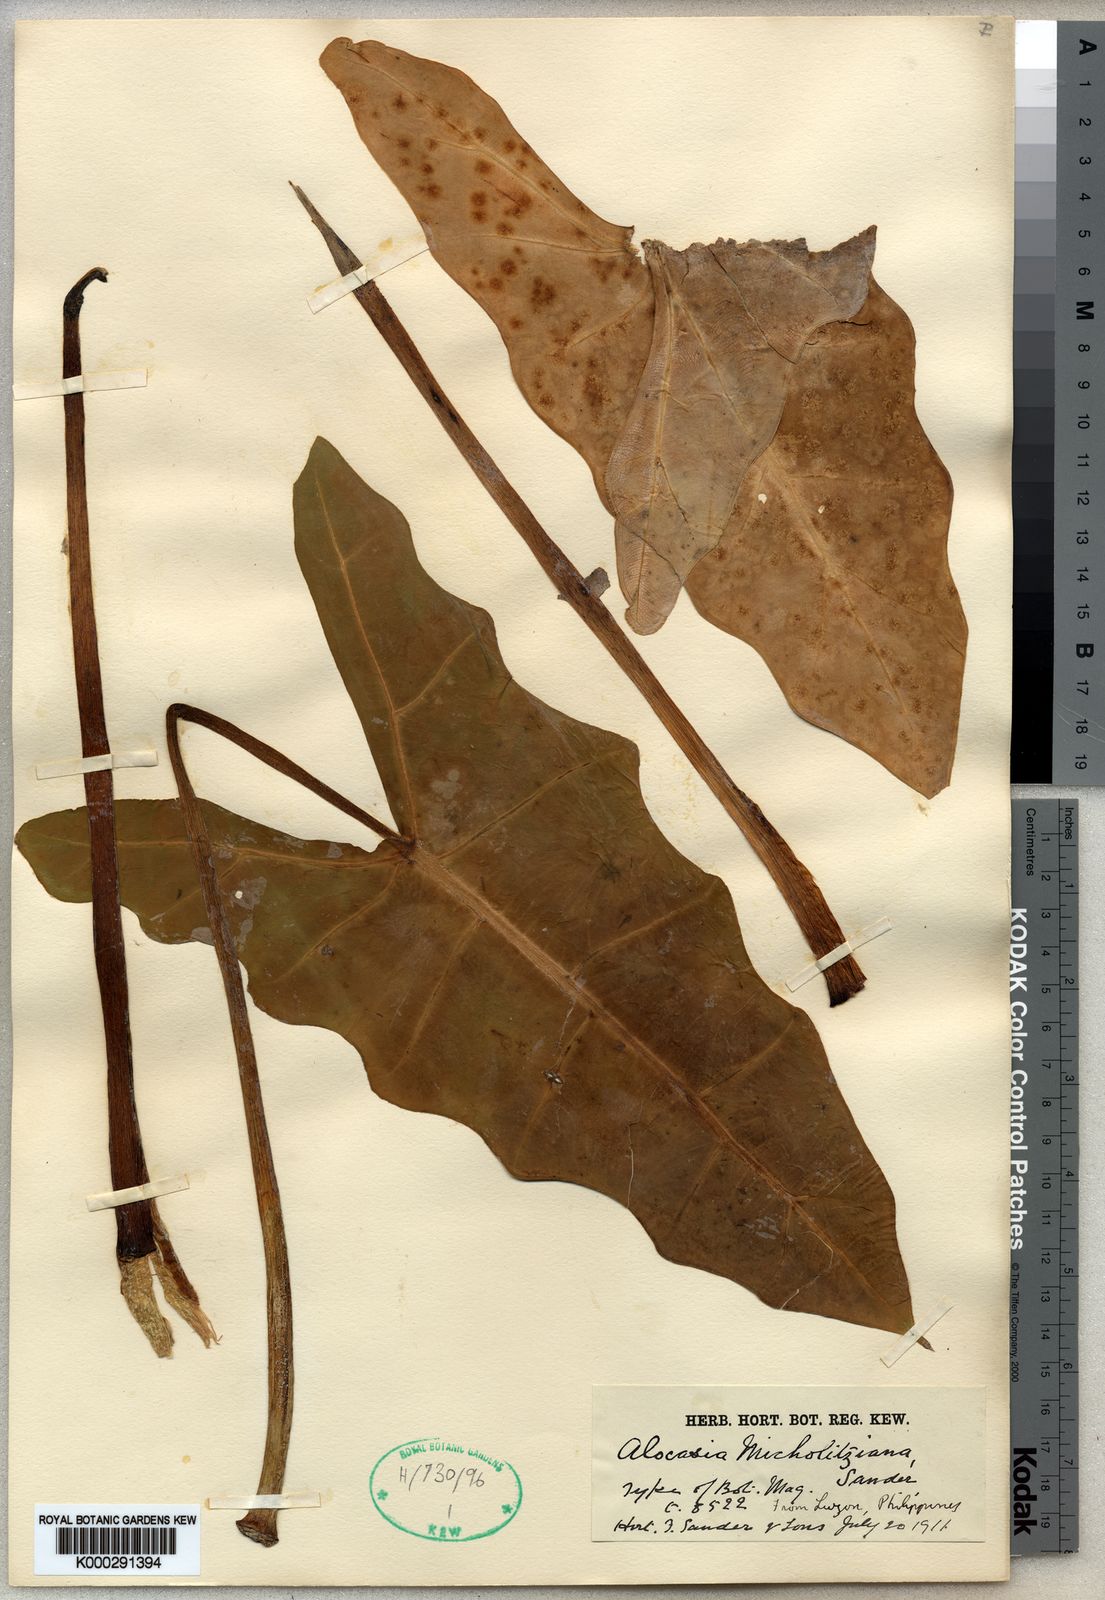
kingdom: Plantae
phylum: Tracheophyta
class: Liliopsida
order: Alismatales
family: Araceae
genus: Alocasia
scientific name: Alocasia micholitziana
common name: Green-velvet alocasia
